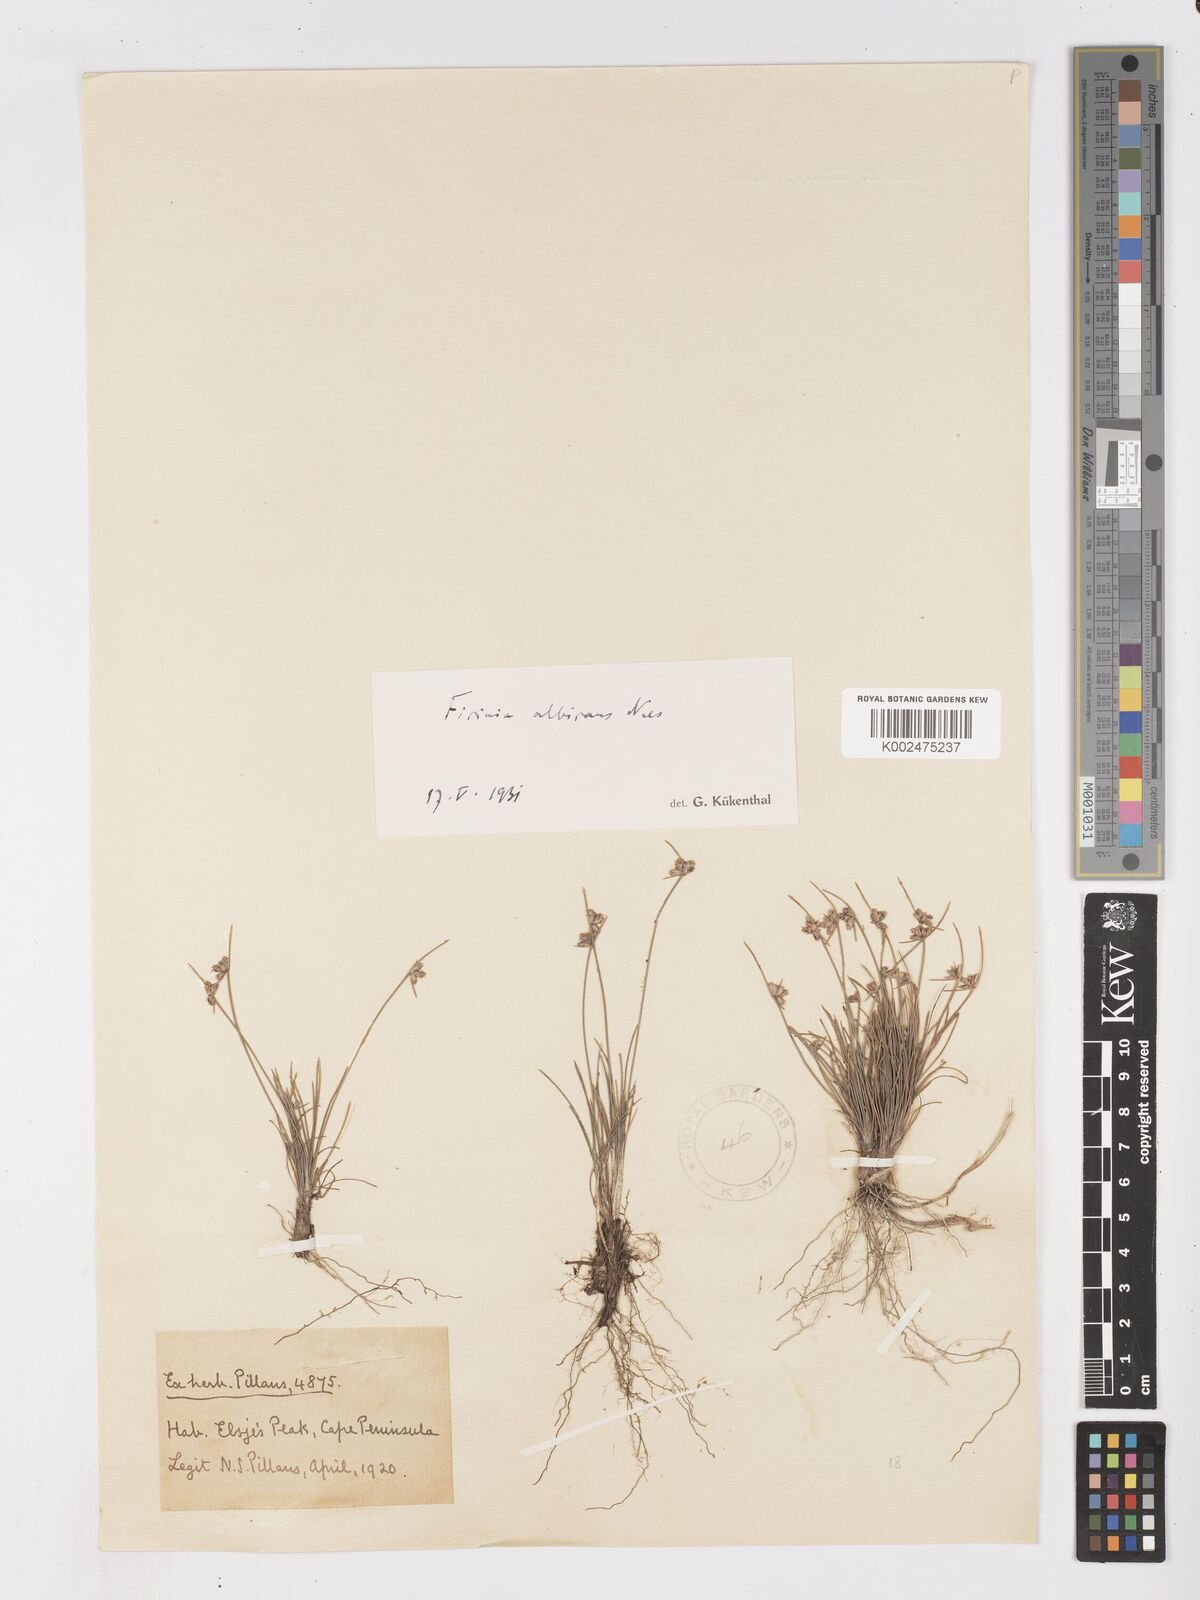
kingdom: Plantae
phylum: Tracheophyta
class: Liliopsida
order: Poales
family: Cyperaceae
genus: Ficinia
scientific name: Ficinia albicans
